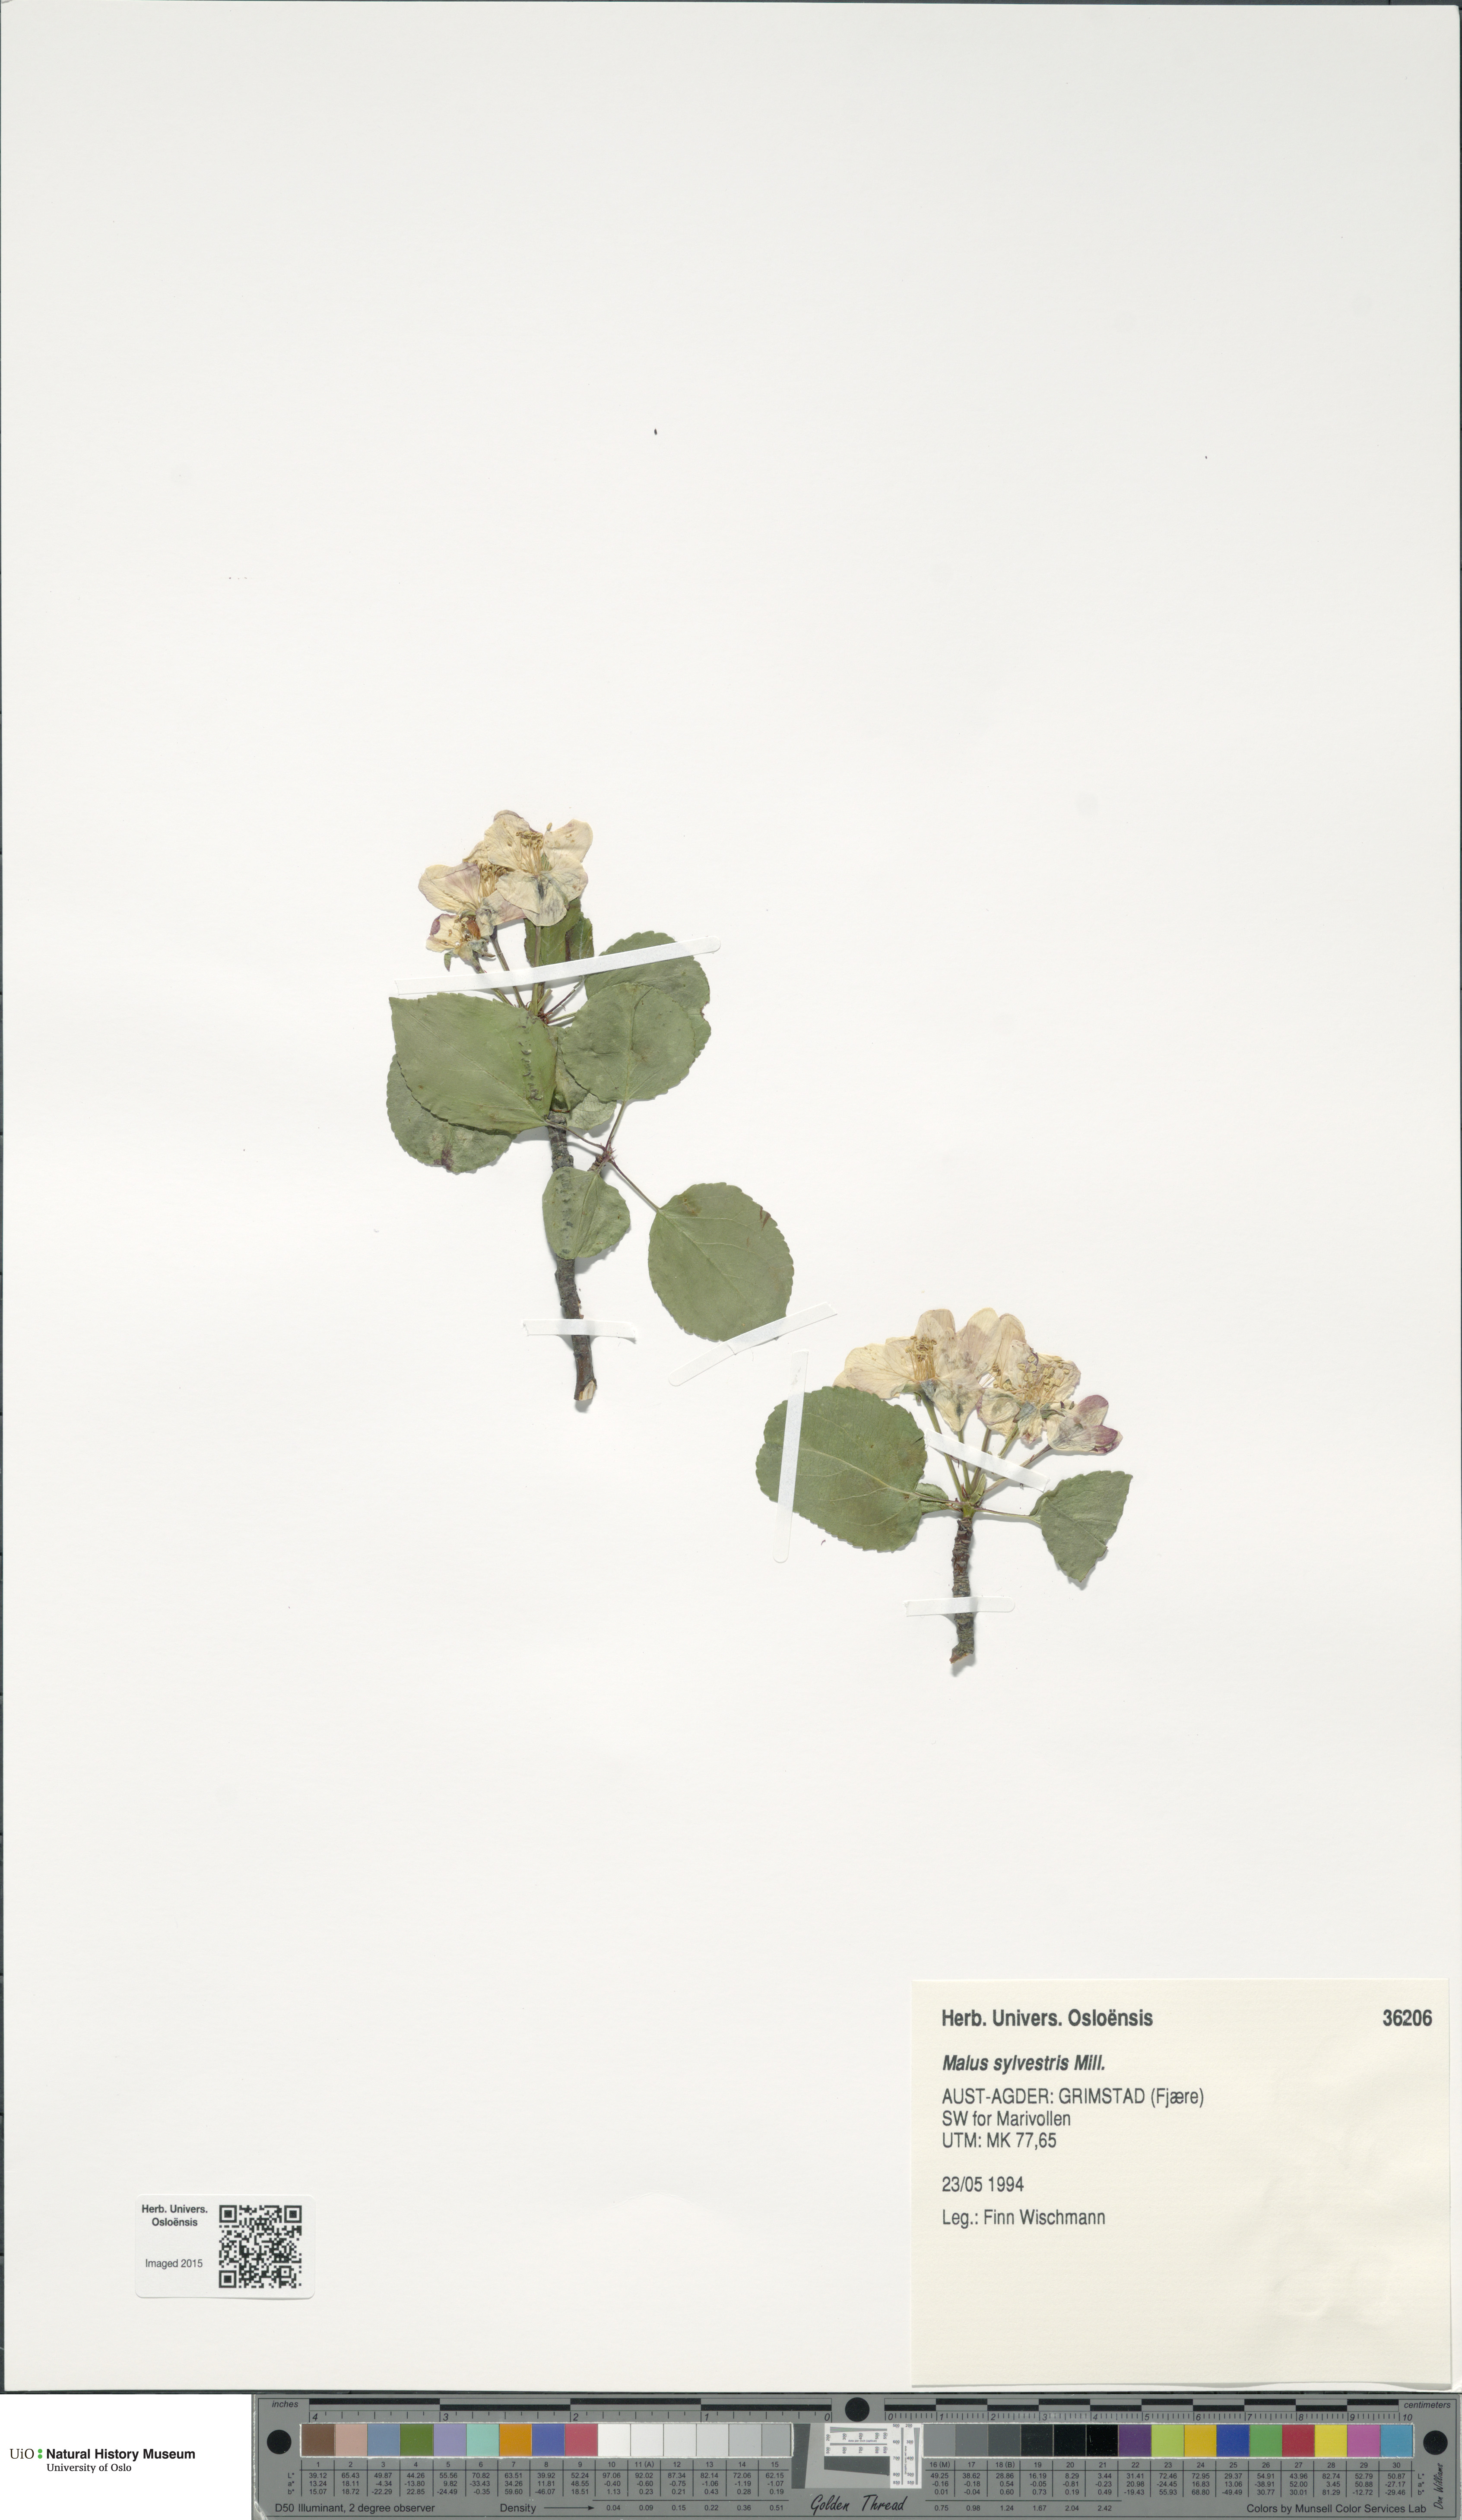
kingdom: Plantae
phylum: Tracheophyta
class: Magnoliopsida
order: Rosales
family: Rosaceae
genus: Malus
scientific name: Malus sylvestris
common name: Crab apple
